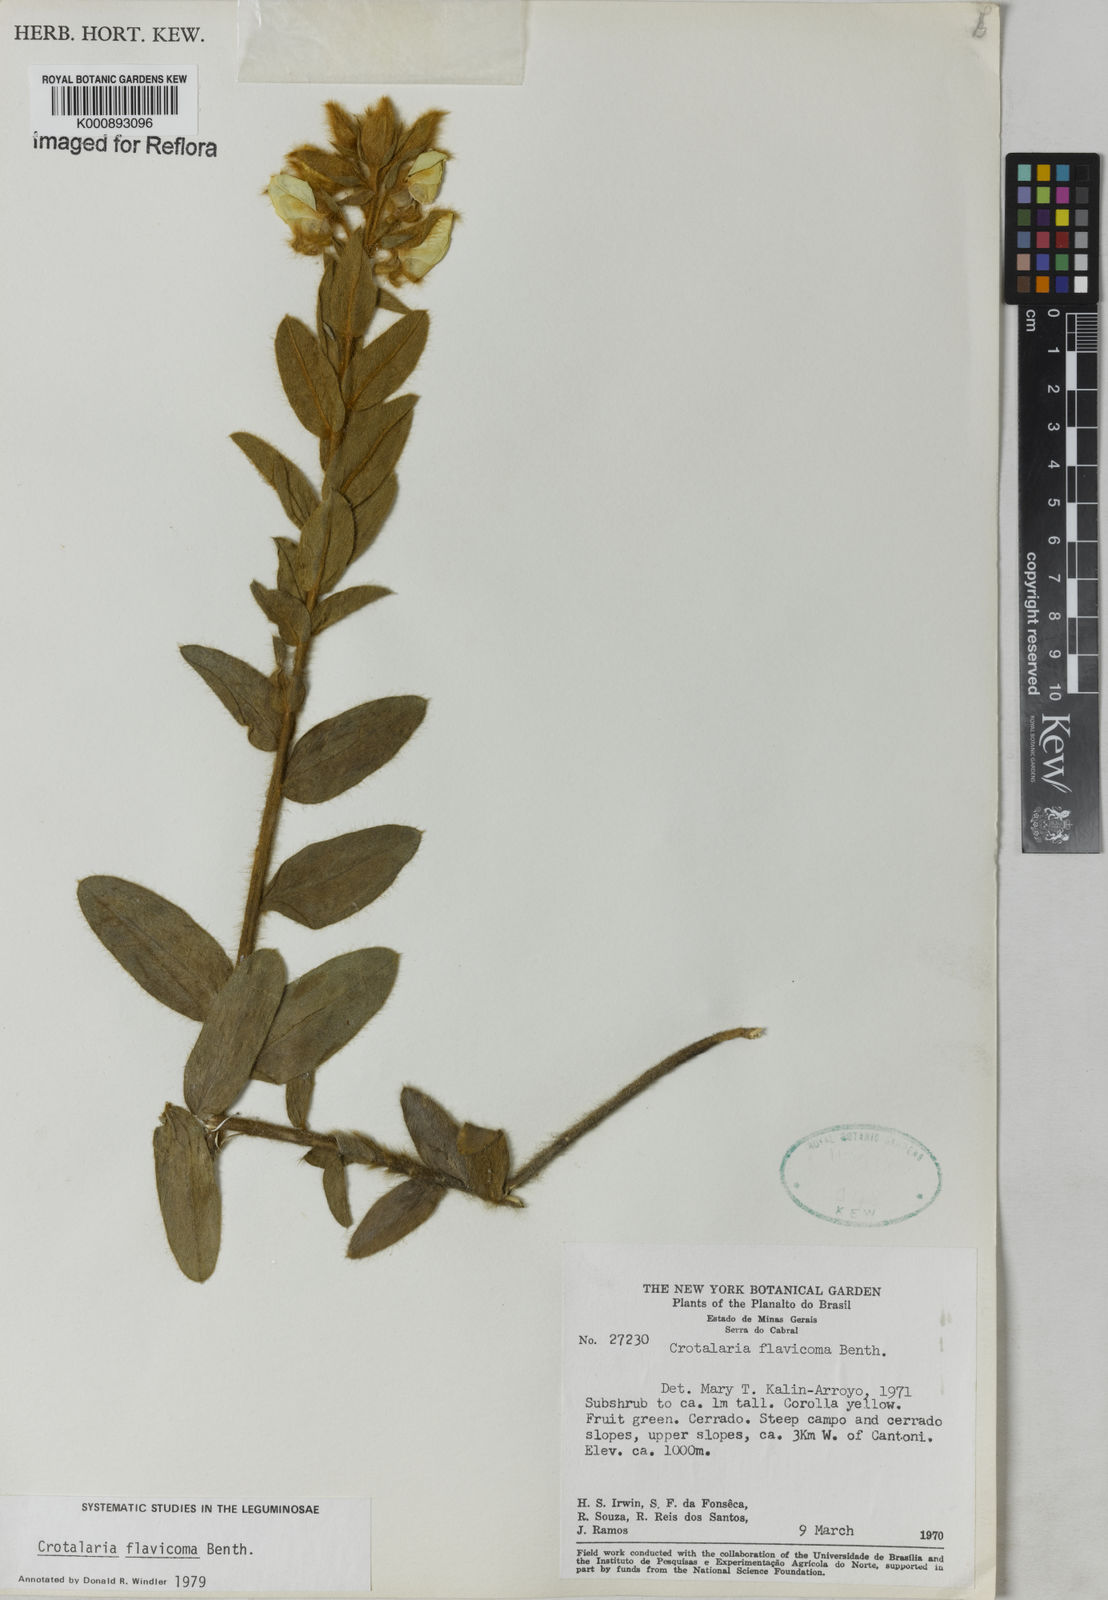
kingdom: Plantae
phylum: Tracheophyta
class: Magnoliopsida
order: Fabales
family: Fabaceae
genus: Crotalaria
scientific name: Crotalaria flavicoma
